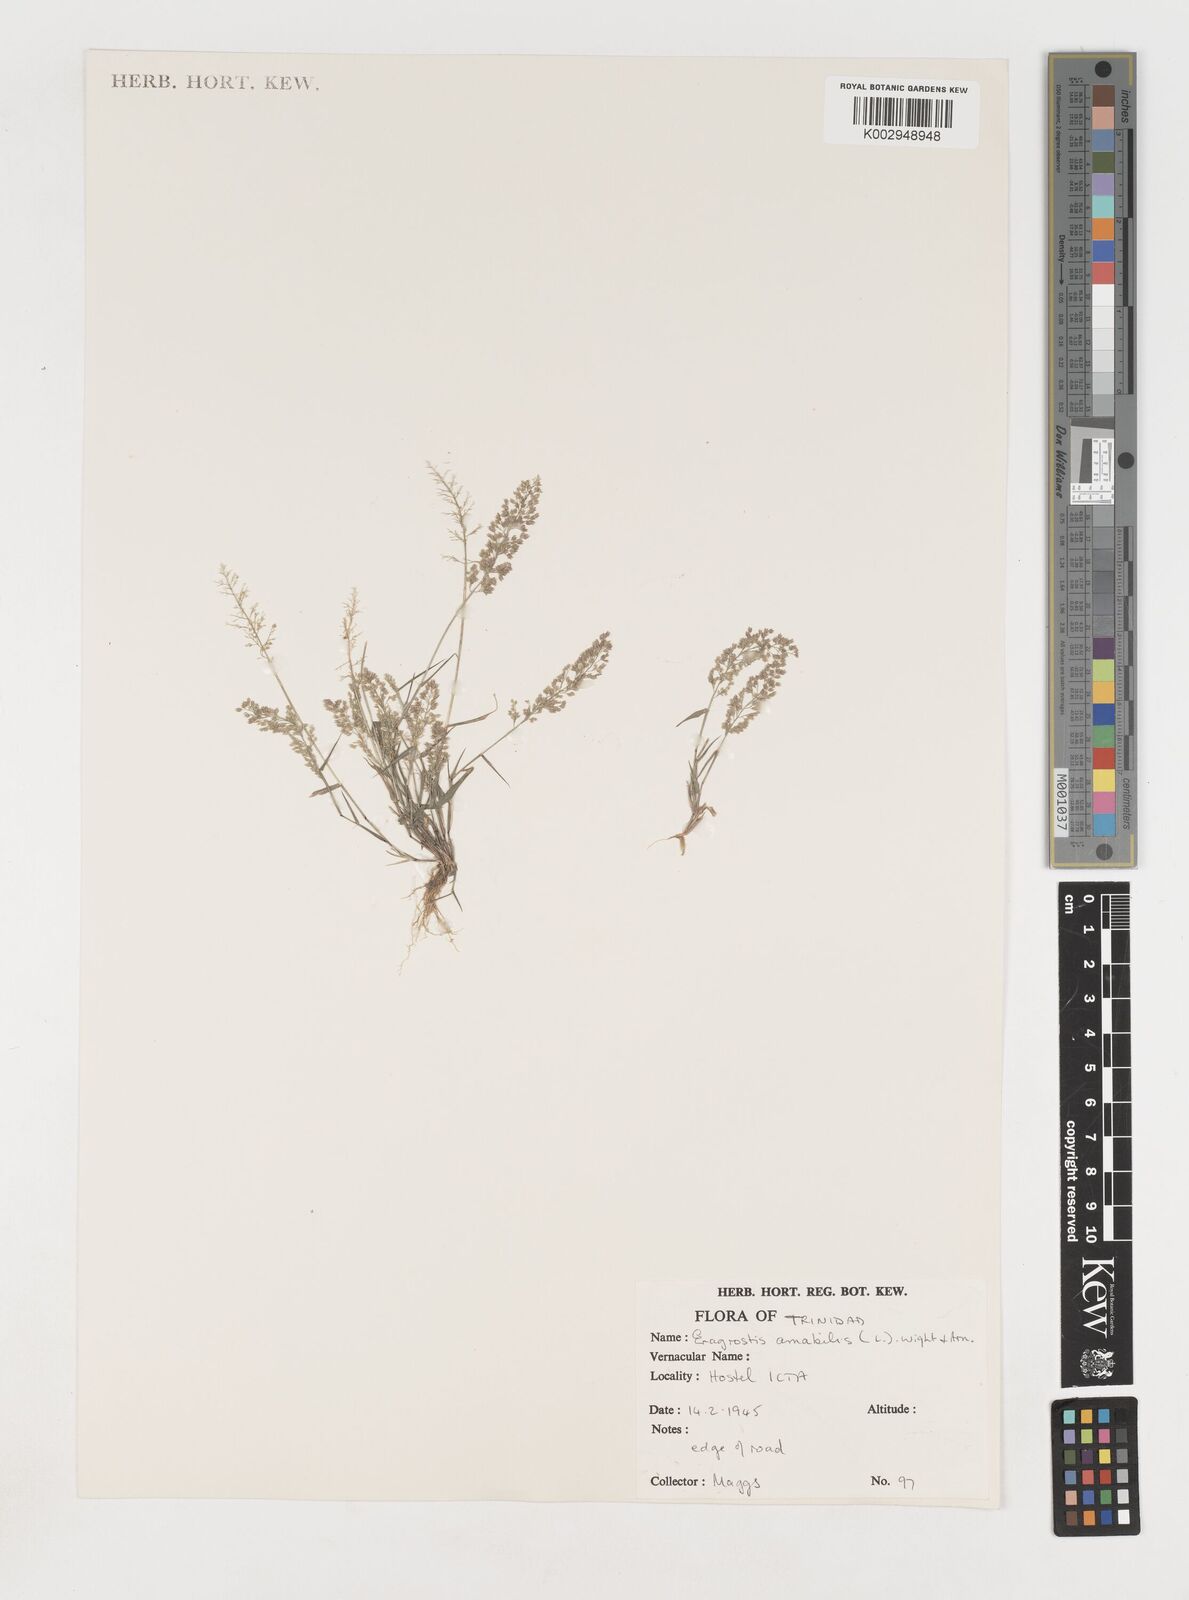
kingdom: Plantae
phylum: Tracheophyta
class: Liliopsida
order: Poales
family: Poaceae
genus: Eragrostis
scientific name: Eragrostis tenella
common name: Japanese lovegrass
